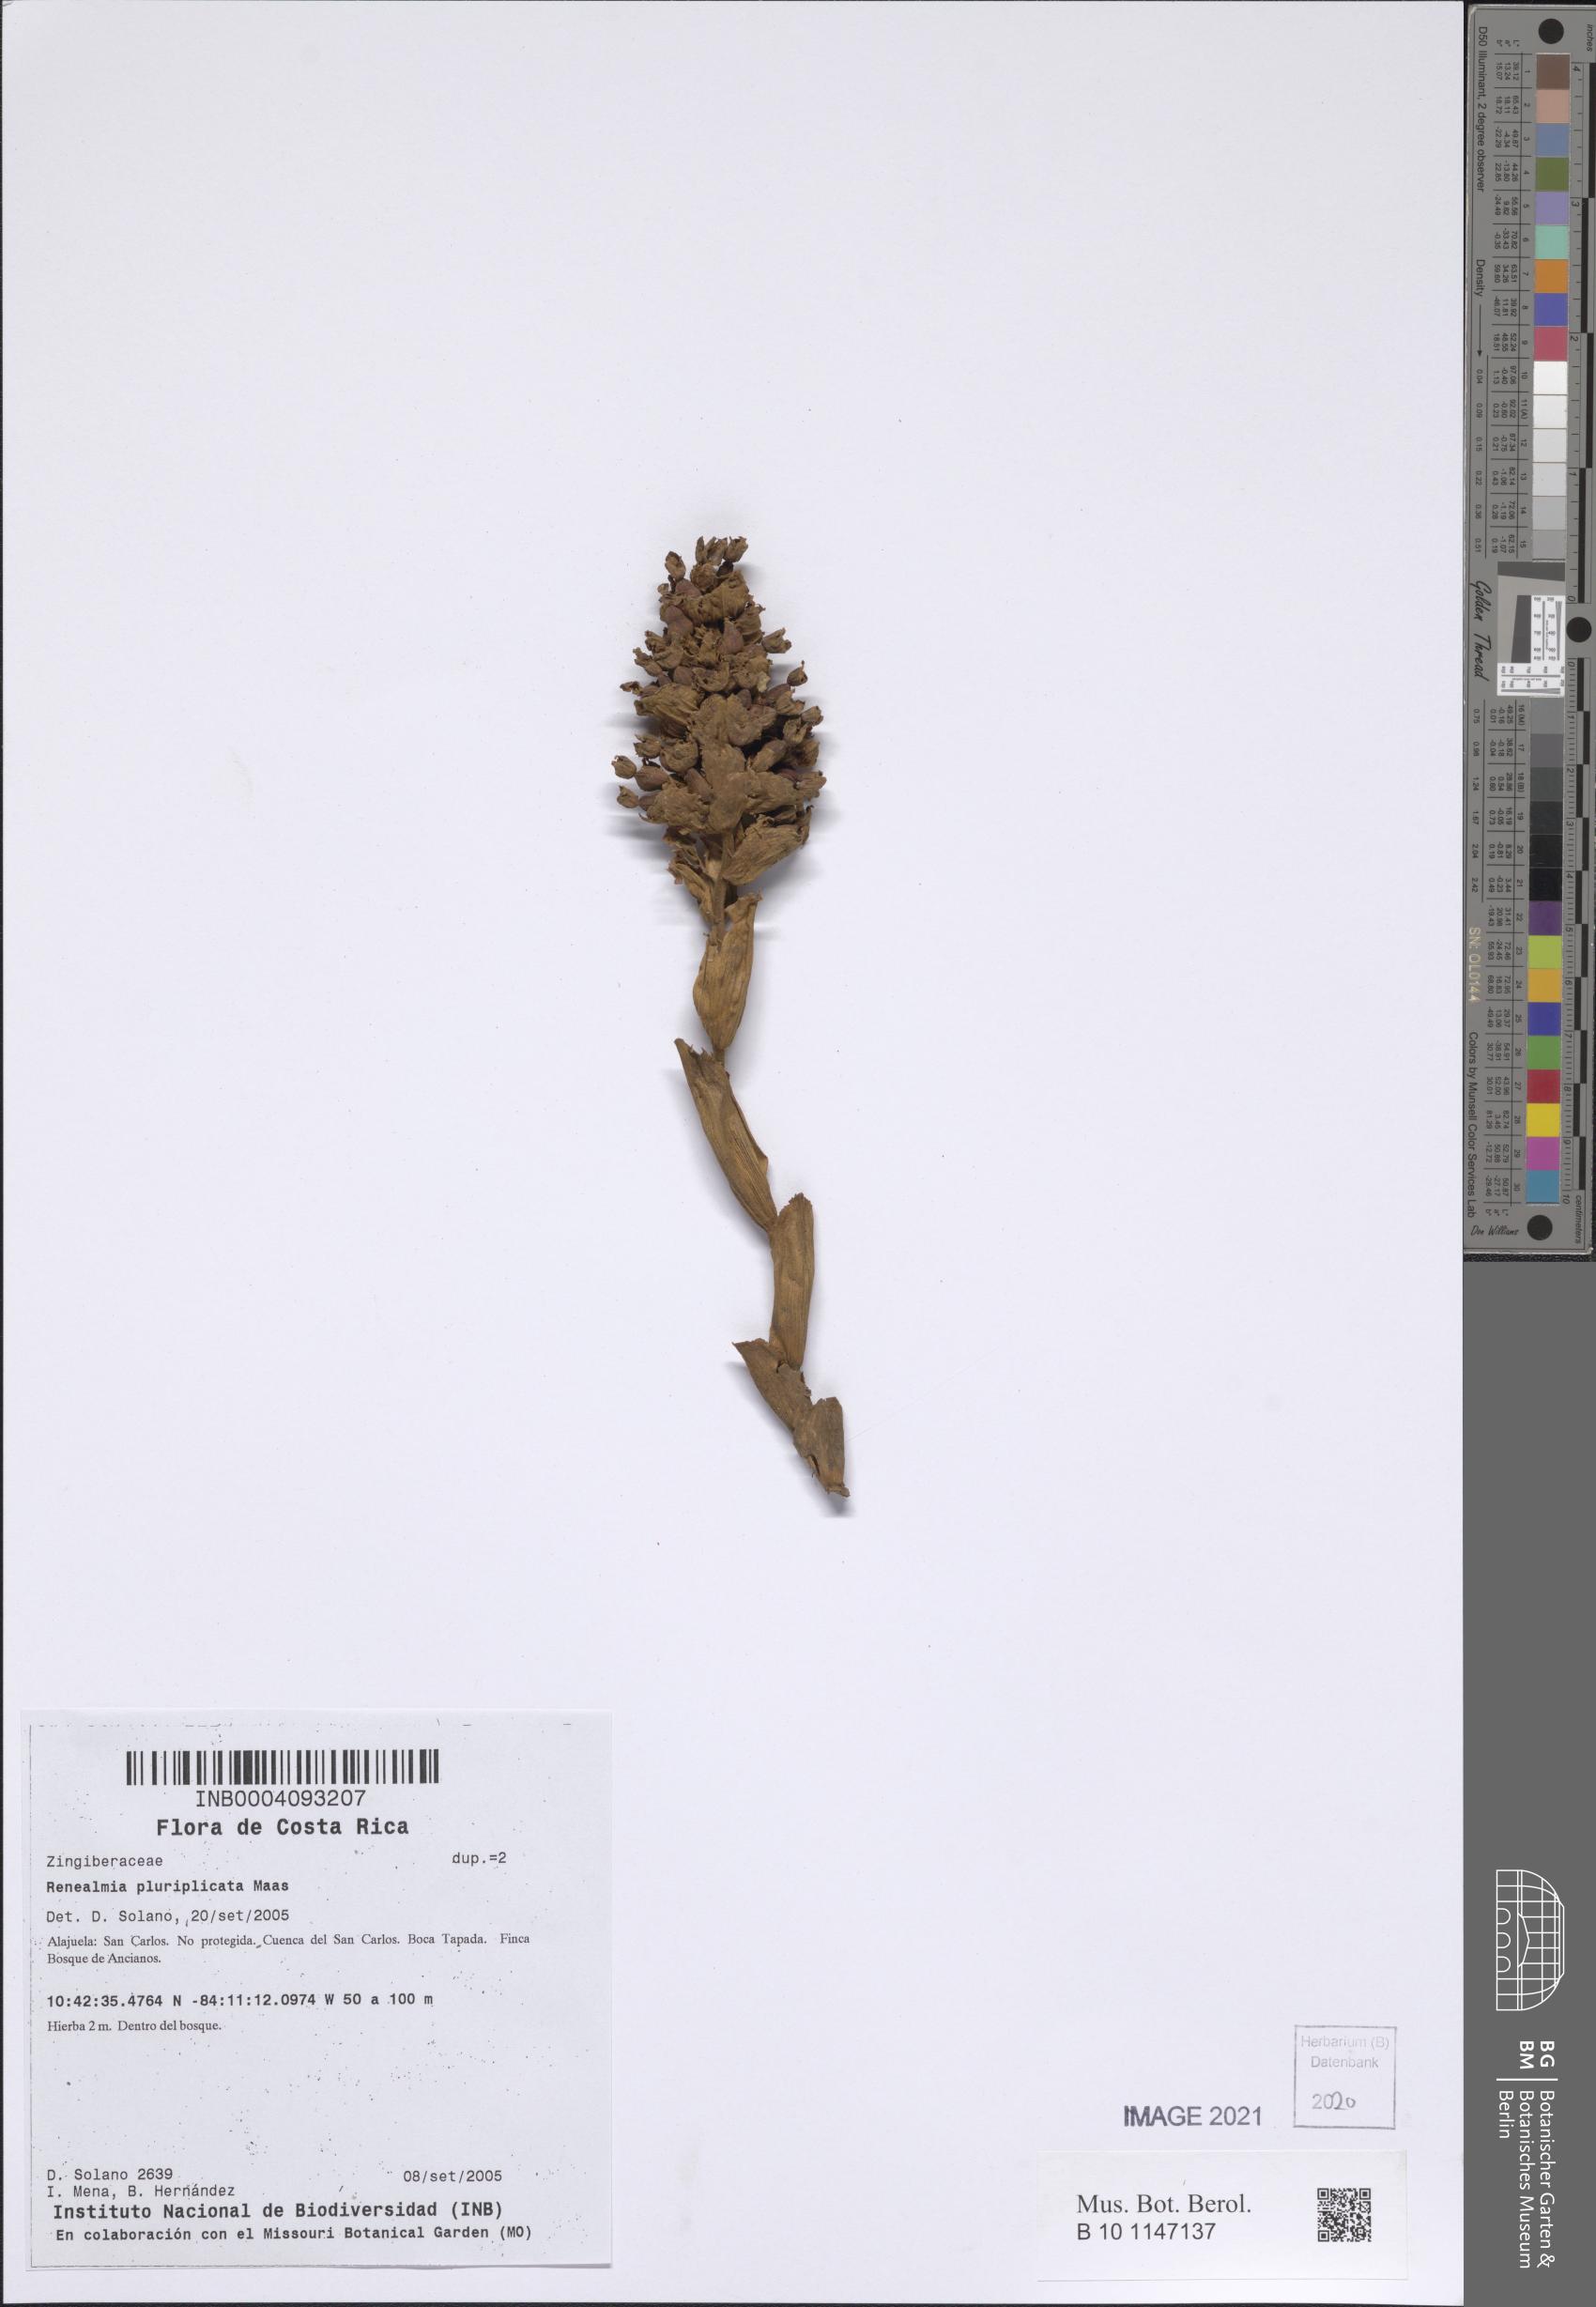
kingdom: Plantae
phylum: Tracheophyta
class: Liliopsida
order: Zingiberales
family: Zingiberaceae
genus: Renealmia
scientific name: Renealmia pluriplicata
